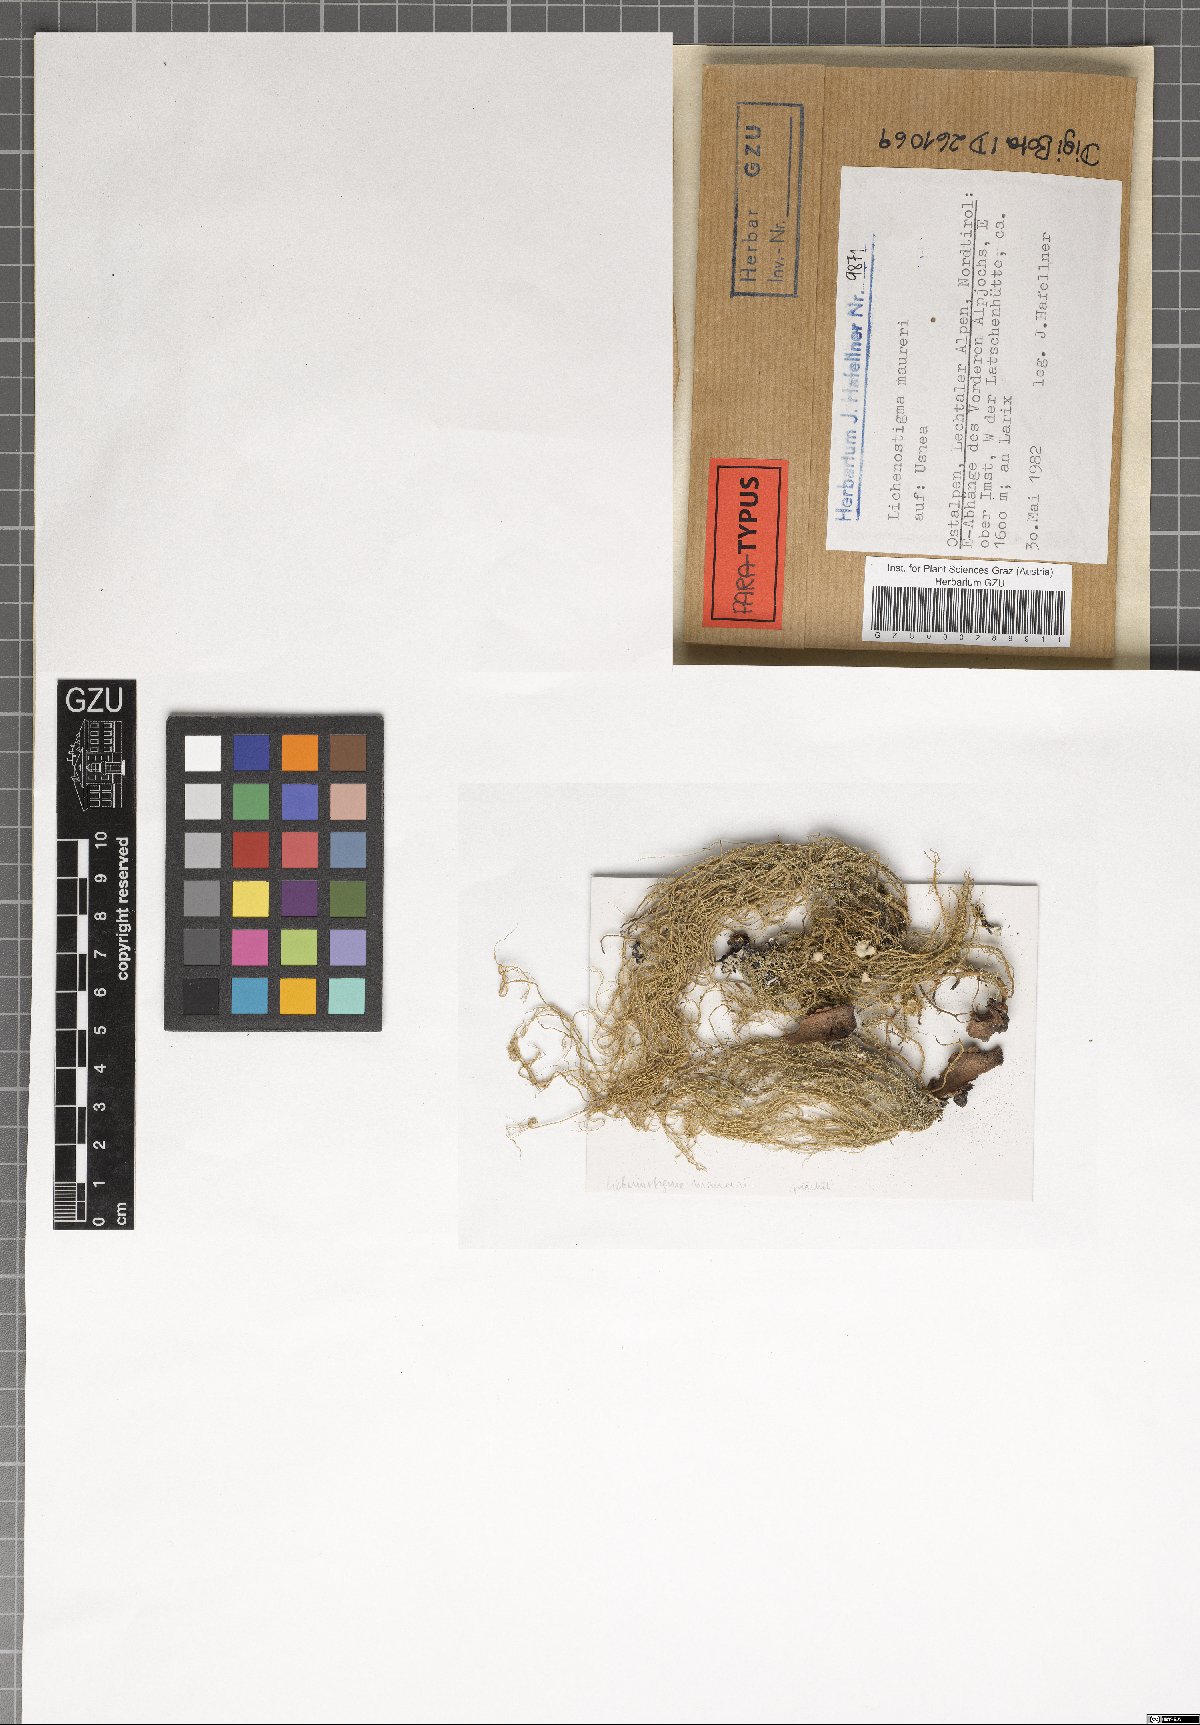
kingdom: Fungi
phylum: Ascomycota
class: Arthoniomycetes
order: Lichenostigmatales
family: Phaeococcomycetaceae
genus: Lichenostigma
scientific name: Lichenostigma maureri
